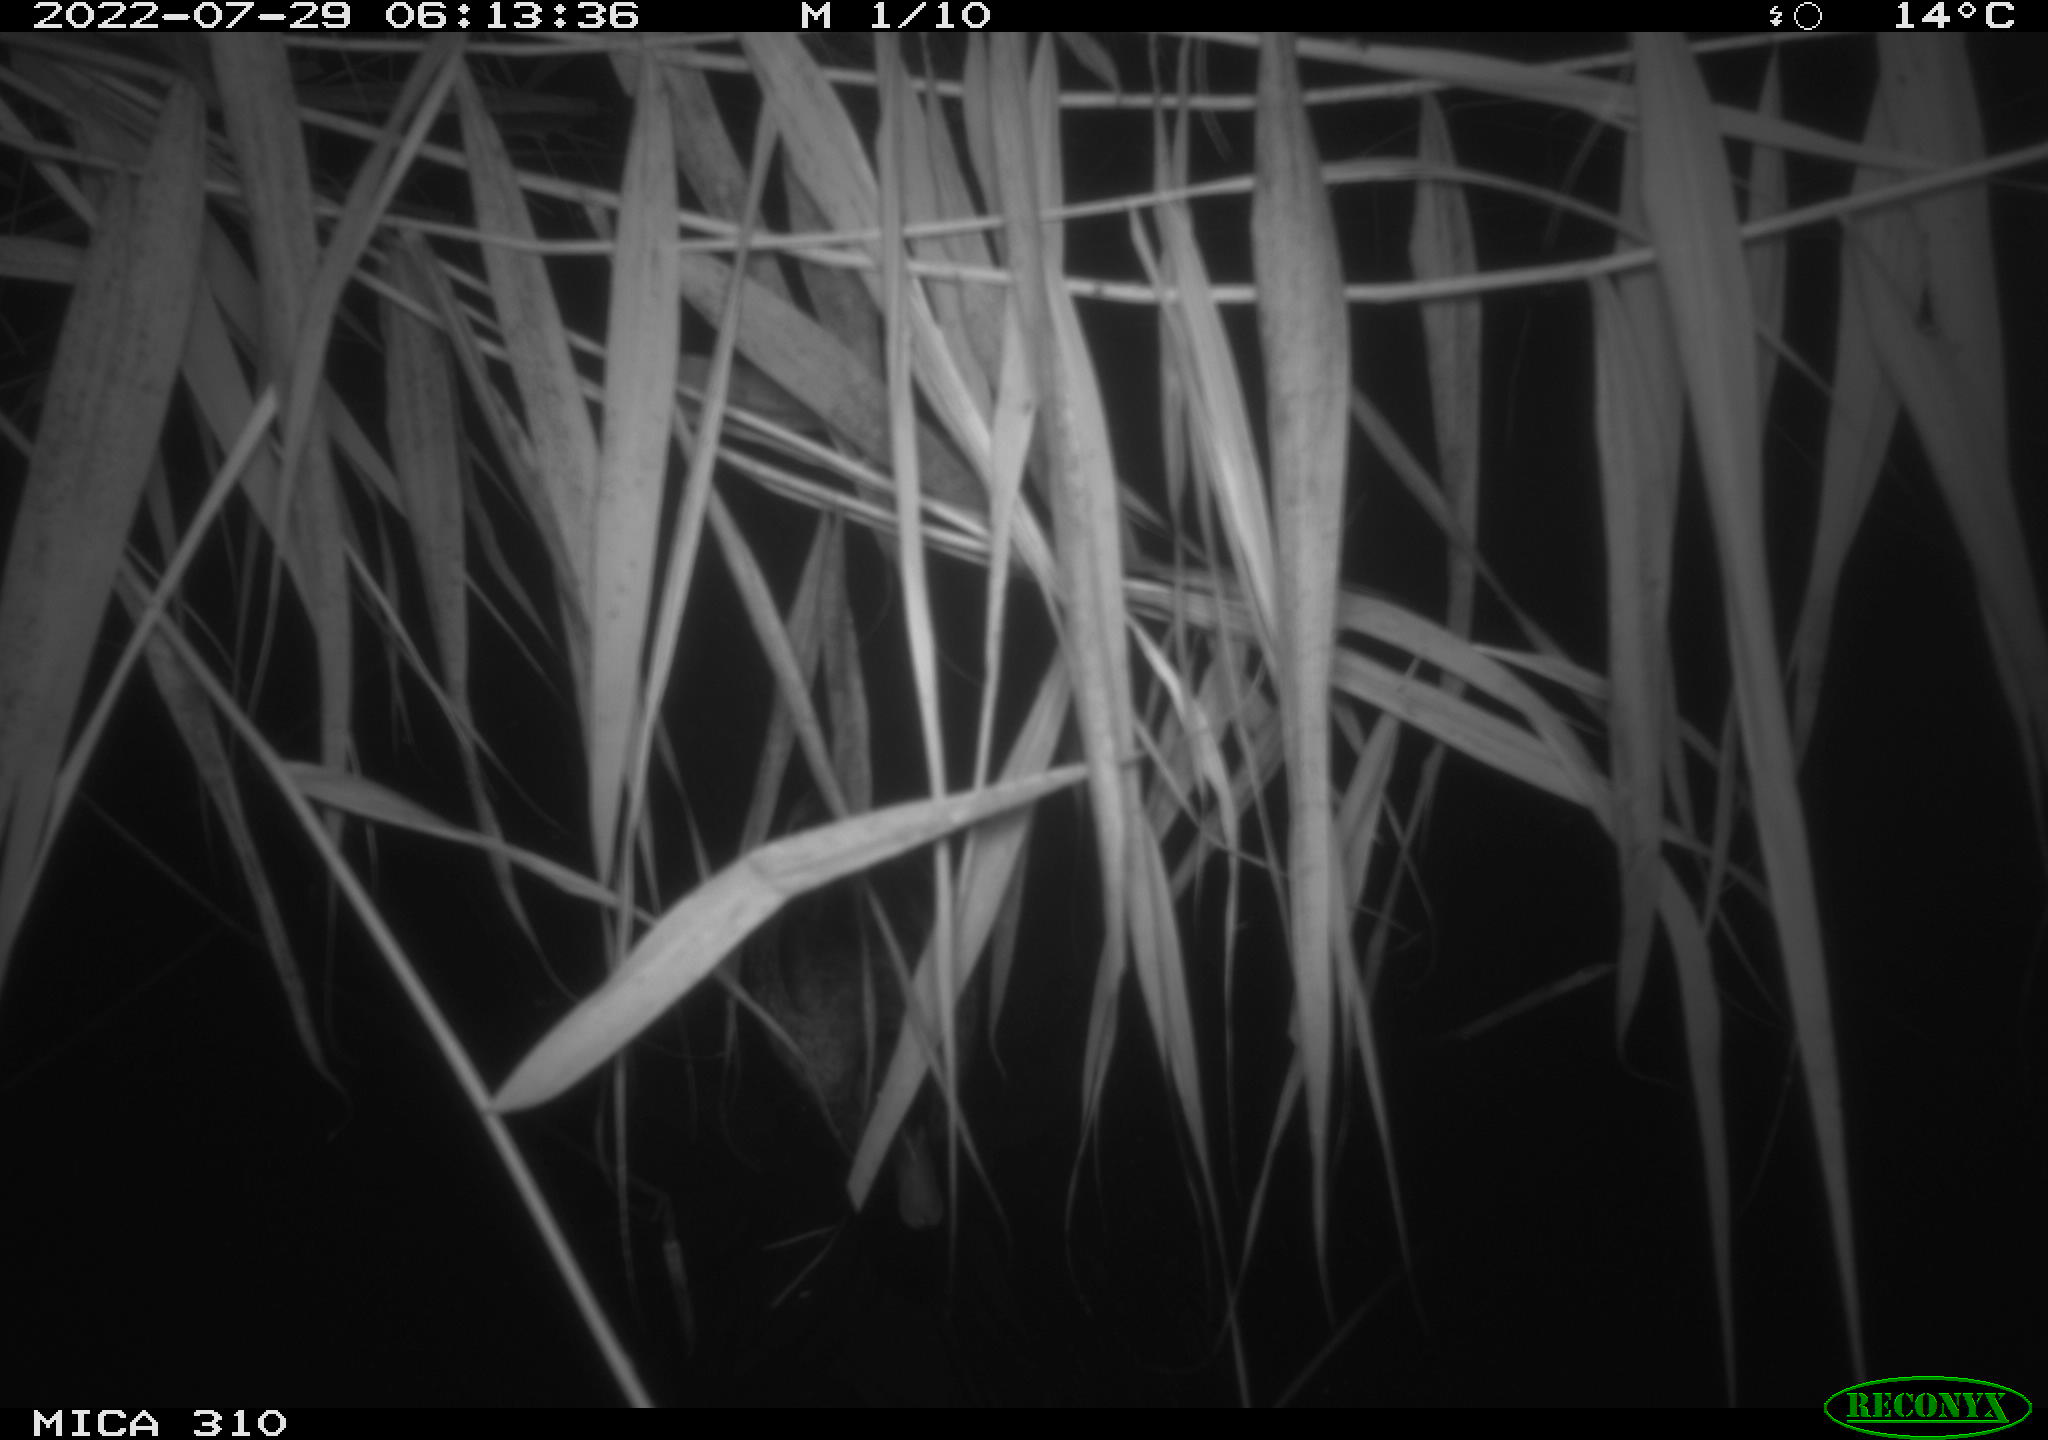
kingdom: Animalia
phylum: Chordata
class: Aves
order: Anseriformes
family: Anatidae
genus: Anas
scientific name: Anas platyrhynchos
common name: Mallard
